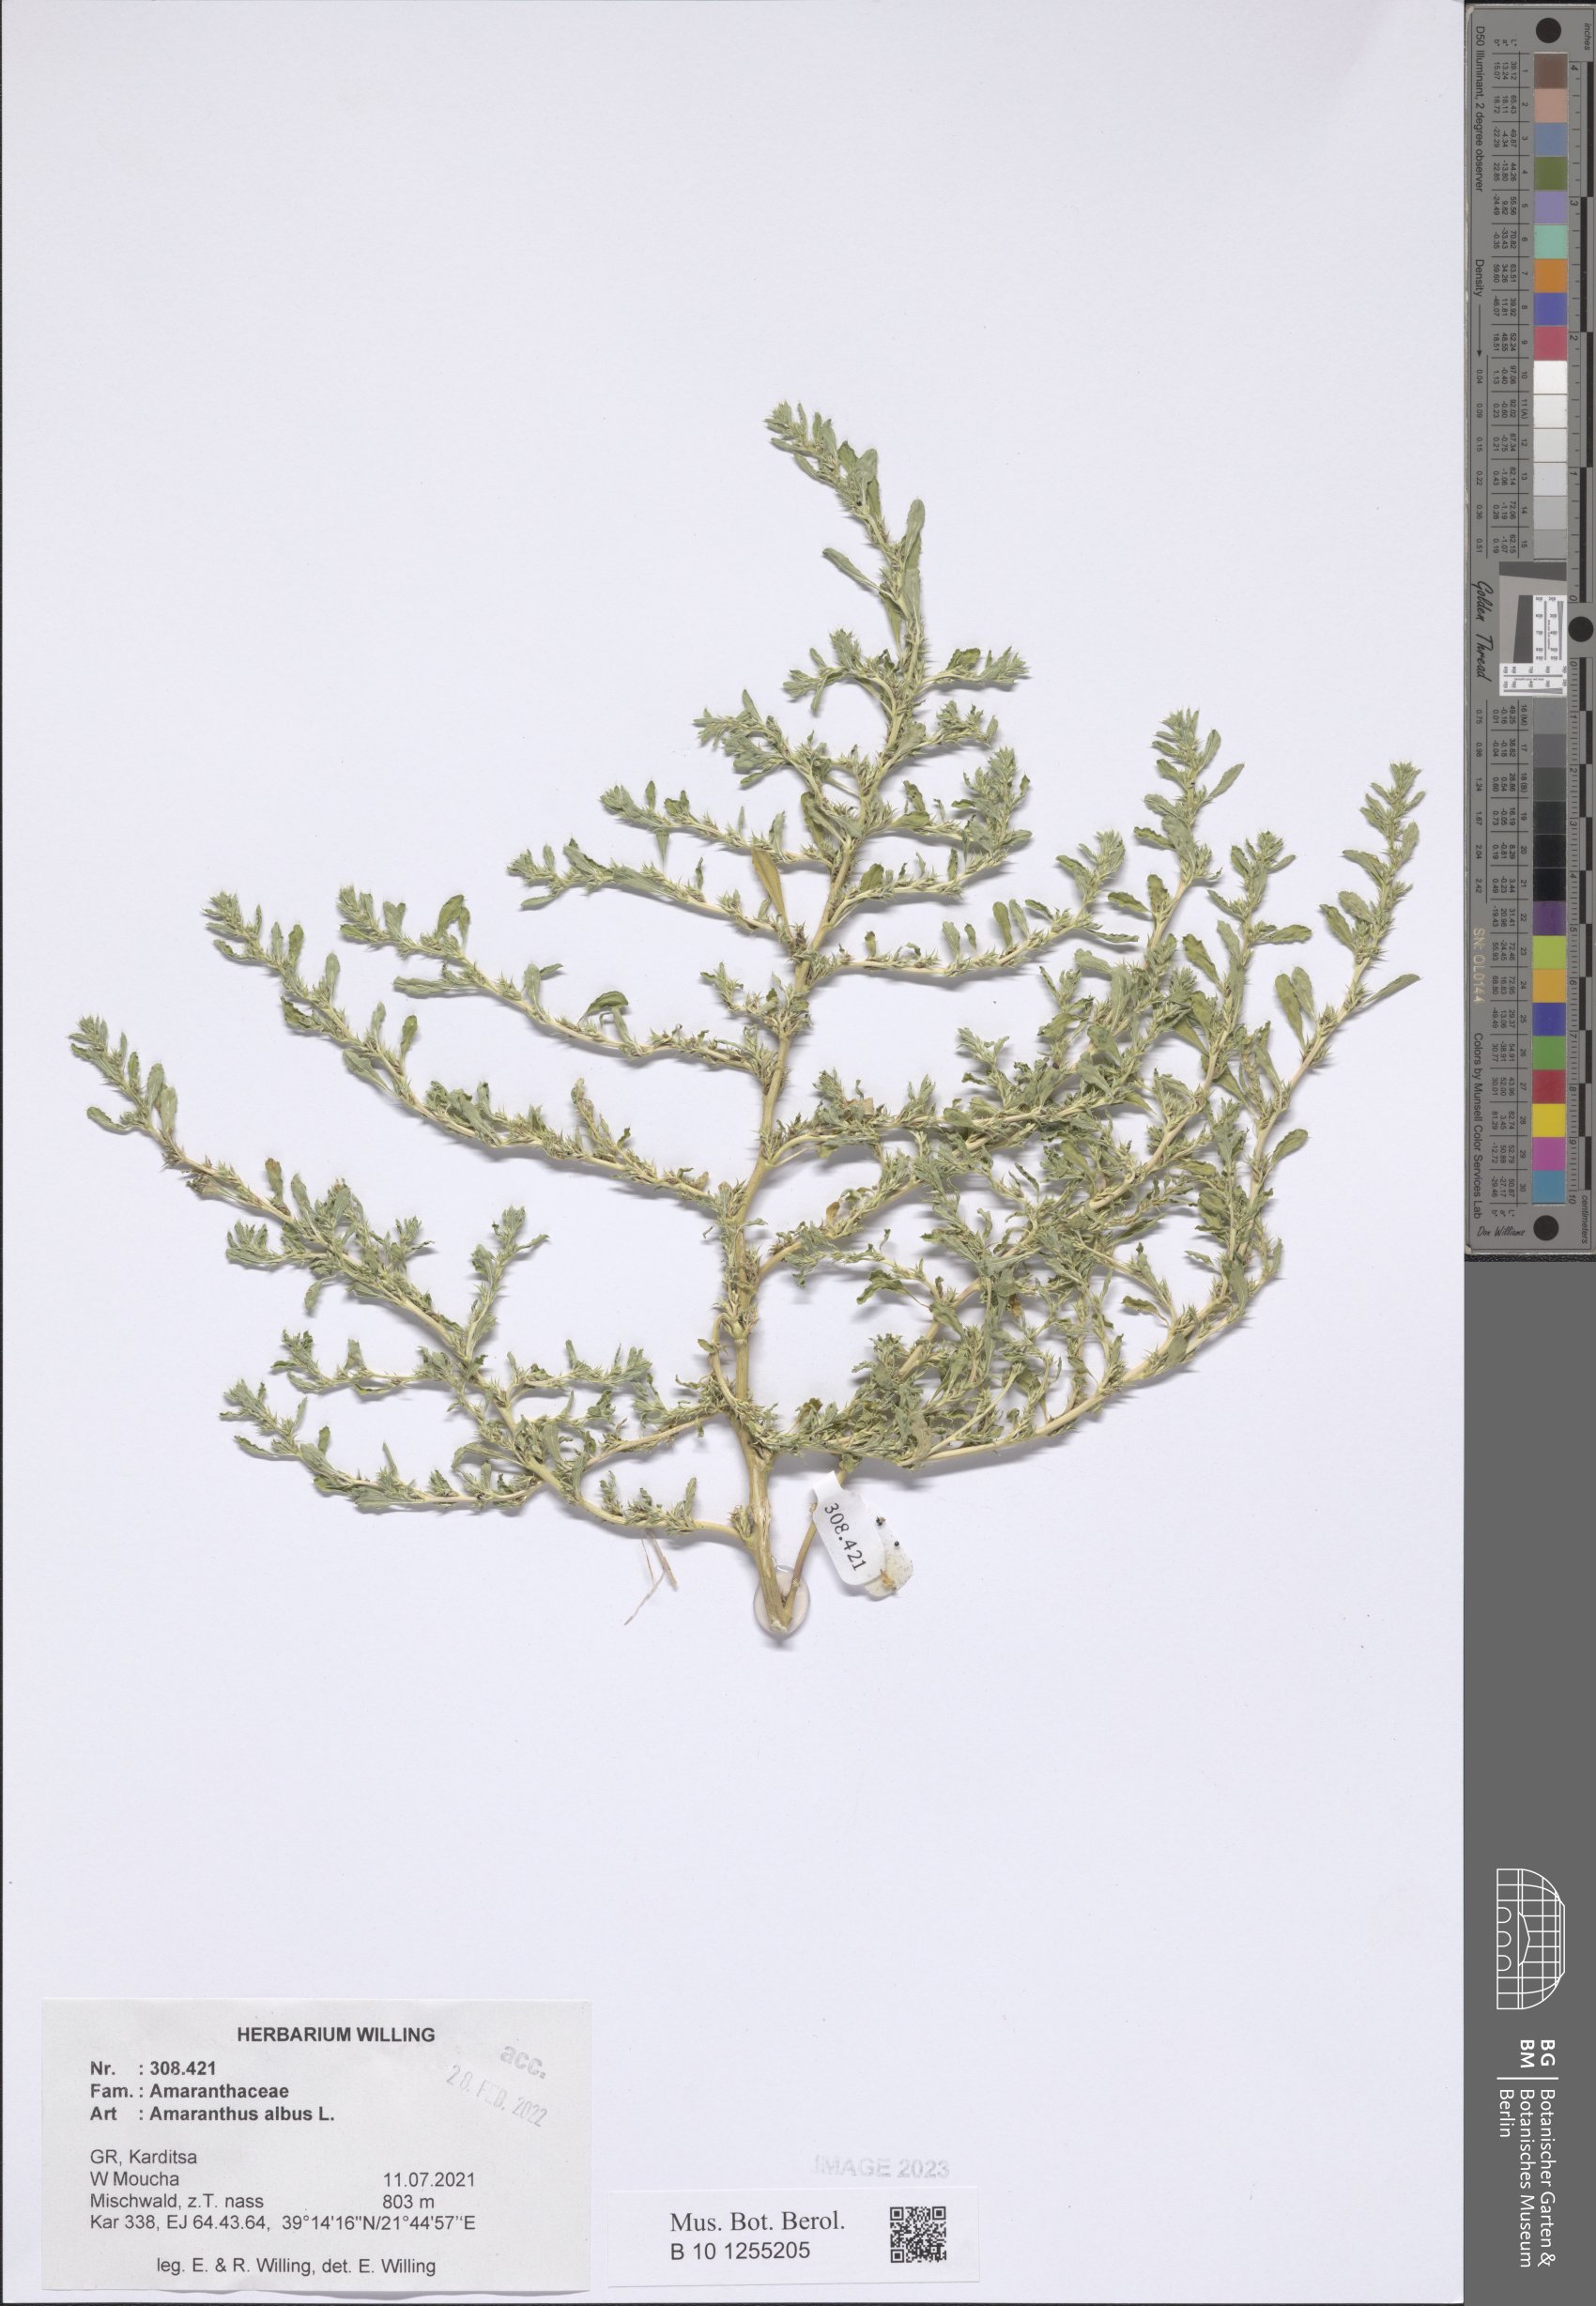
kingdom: Plantae
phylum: Tracheophyta
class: Magnoliopsida
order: Caryophyllales
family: Amaranthaceae
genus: Amaranthus
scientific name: Amaranthus albus
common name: White pigweed
